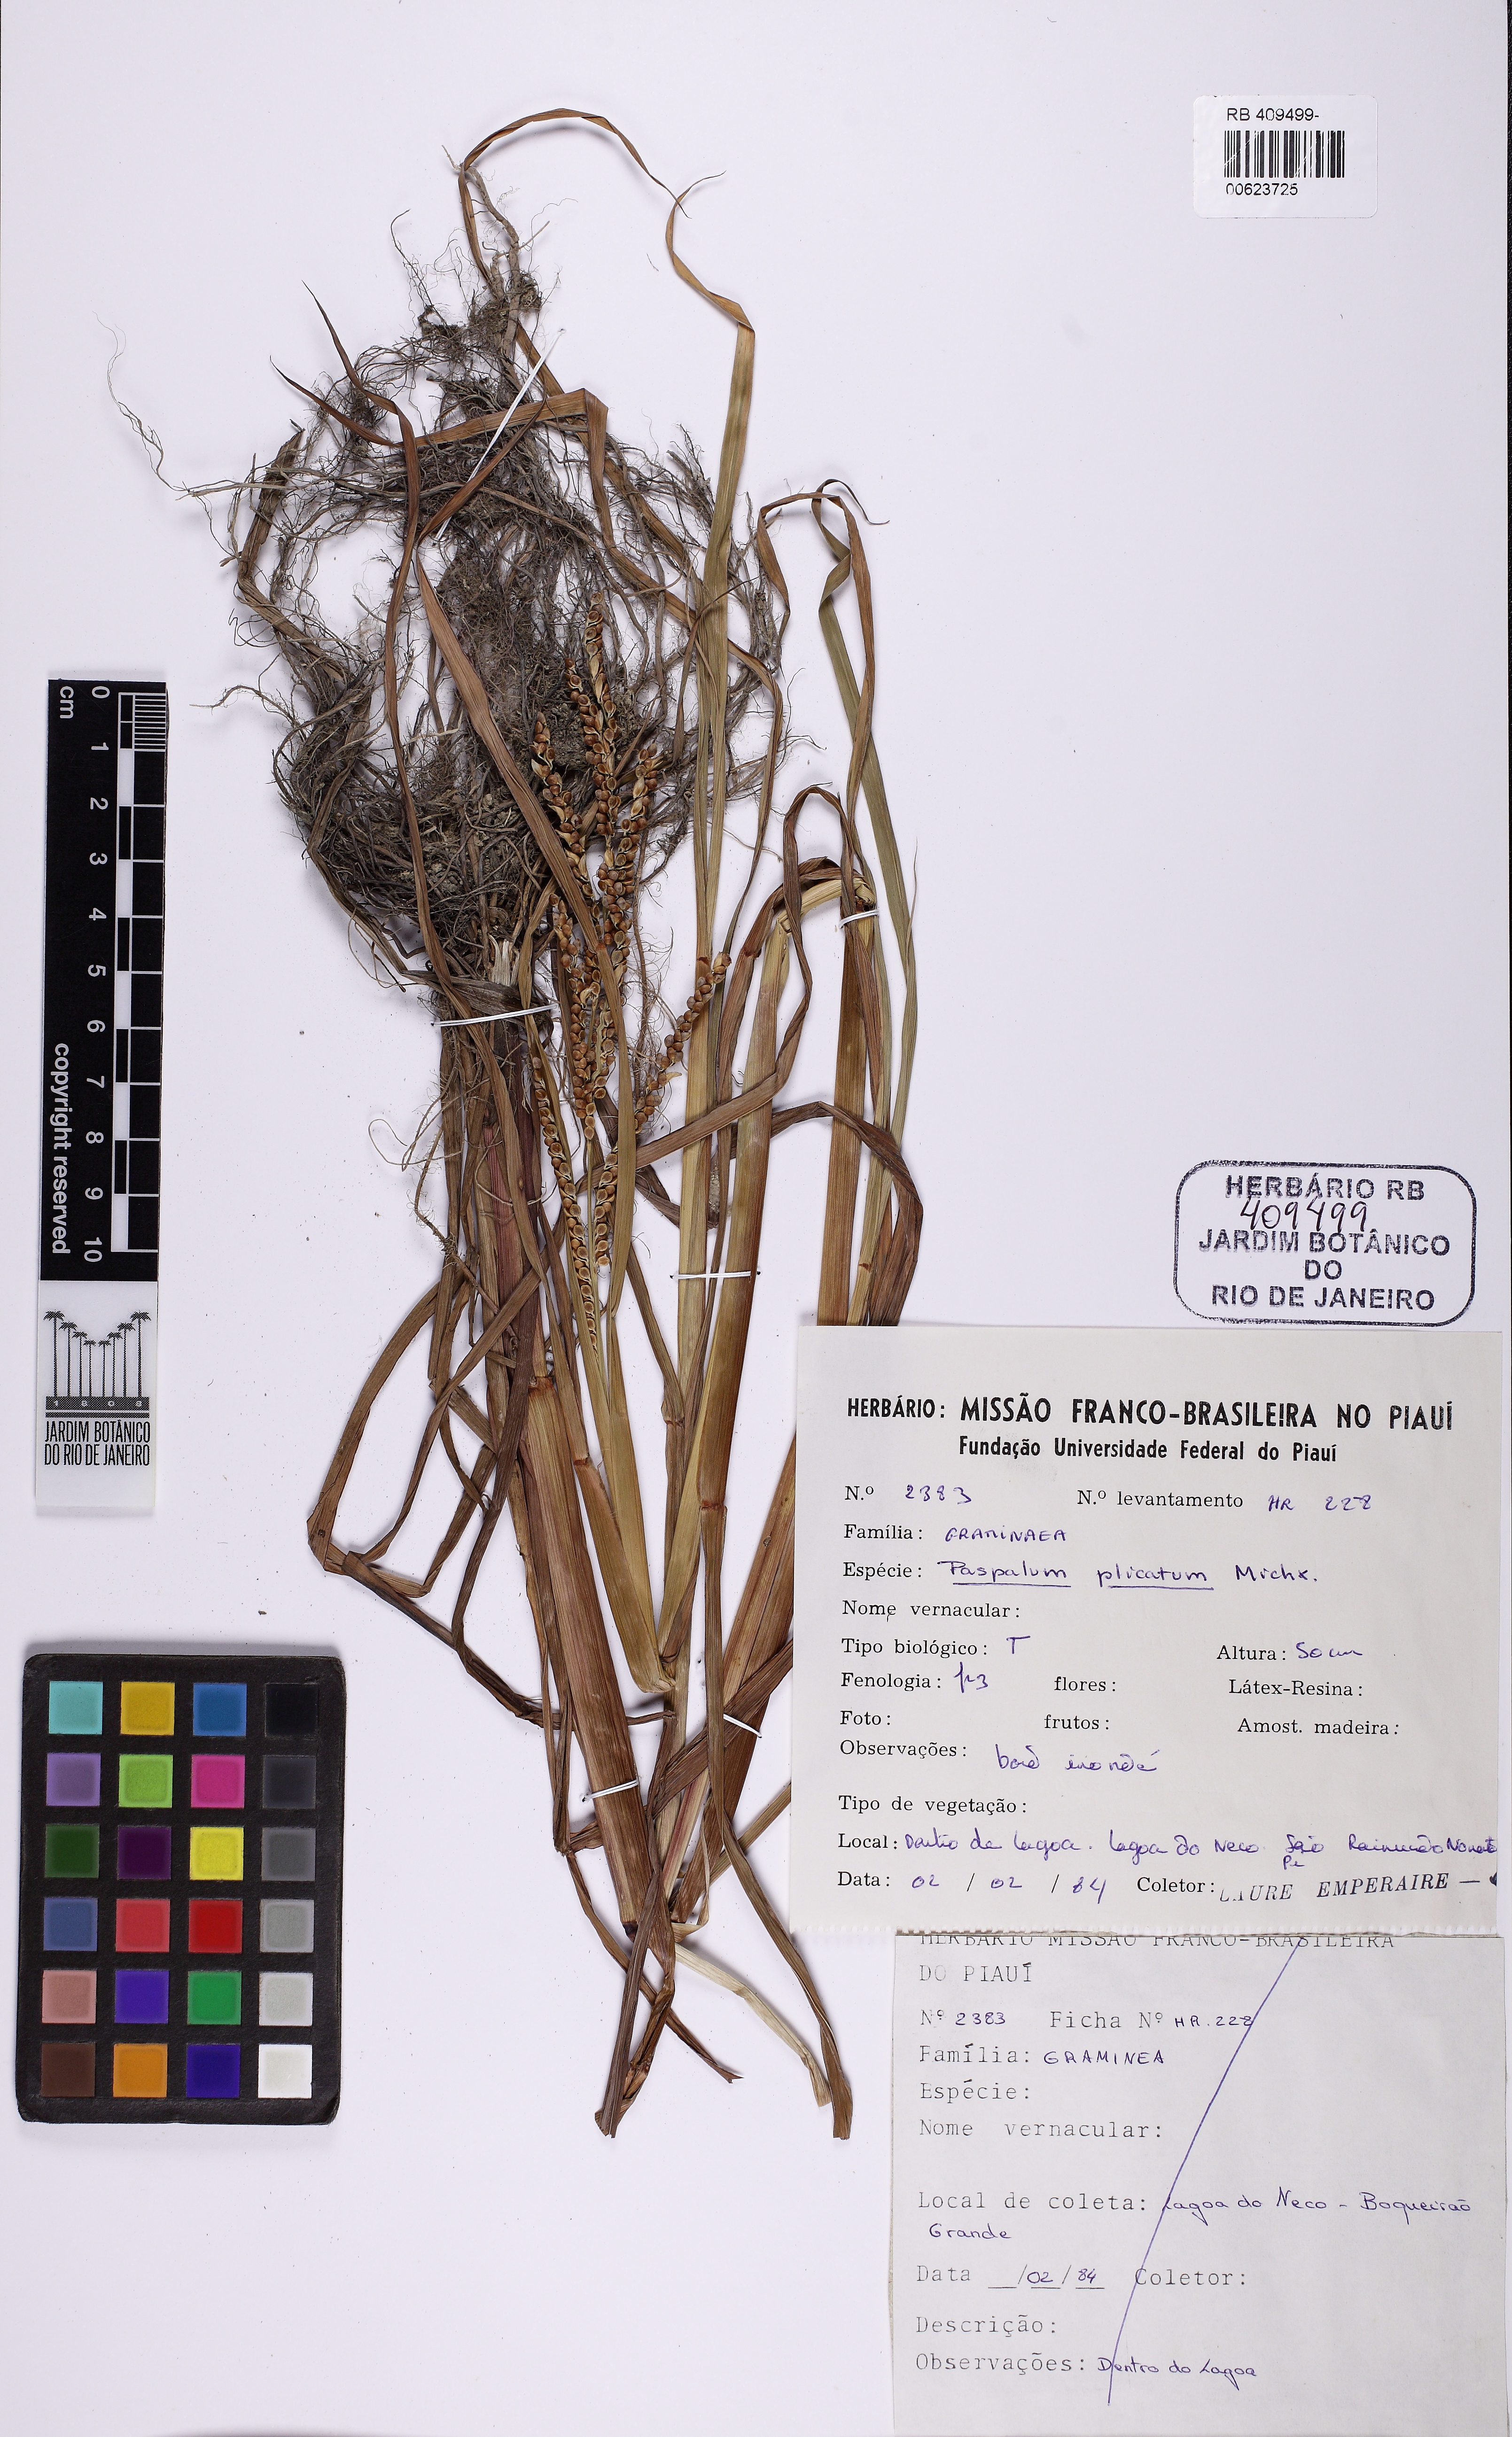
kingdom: Plantae
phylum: Tracheophyta
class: Liliopsida
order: Poales
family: Poaceae
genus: Paspalum
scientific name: Paspalum plicatulum
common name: Top paspalum
